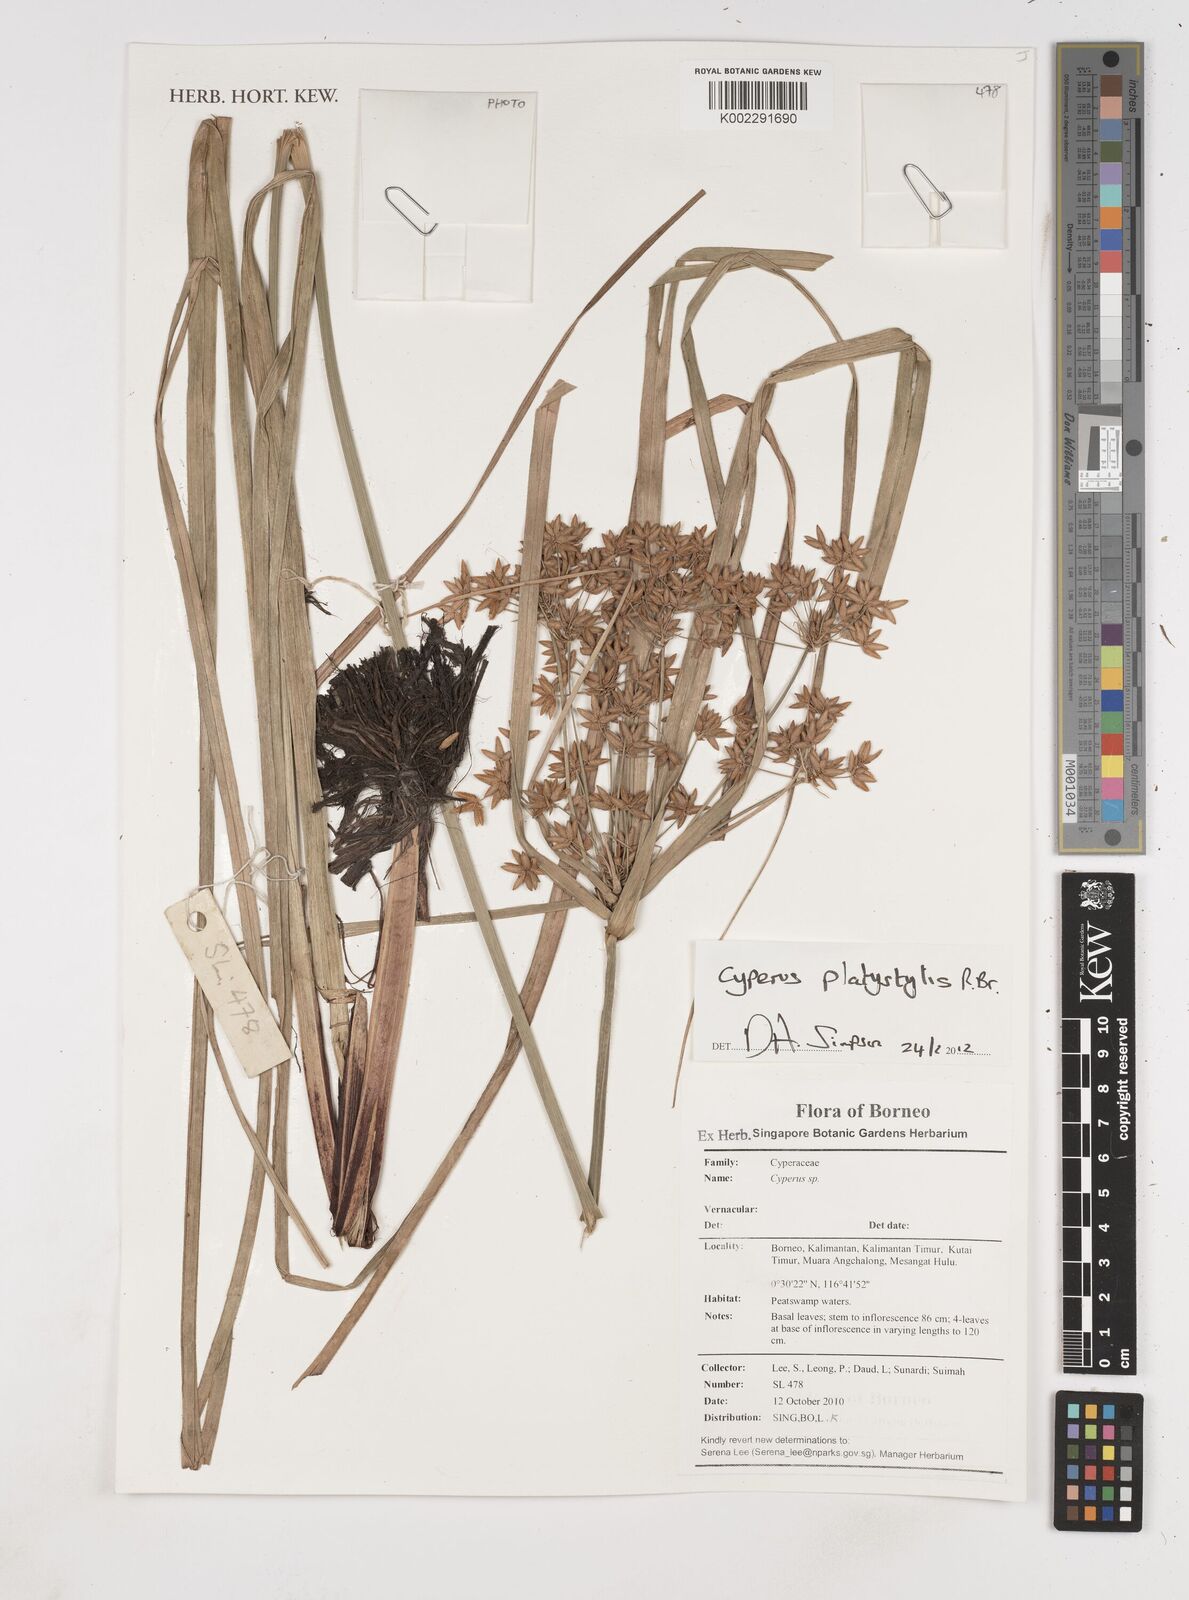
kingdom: Plantae
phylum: Tracheophyta
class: Liliopsida
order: Poales
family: Cyperaceae
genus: Cyperus
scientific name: Cyperus platystylis
